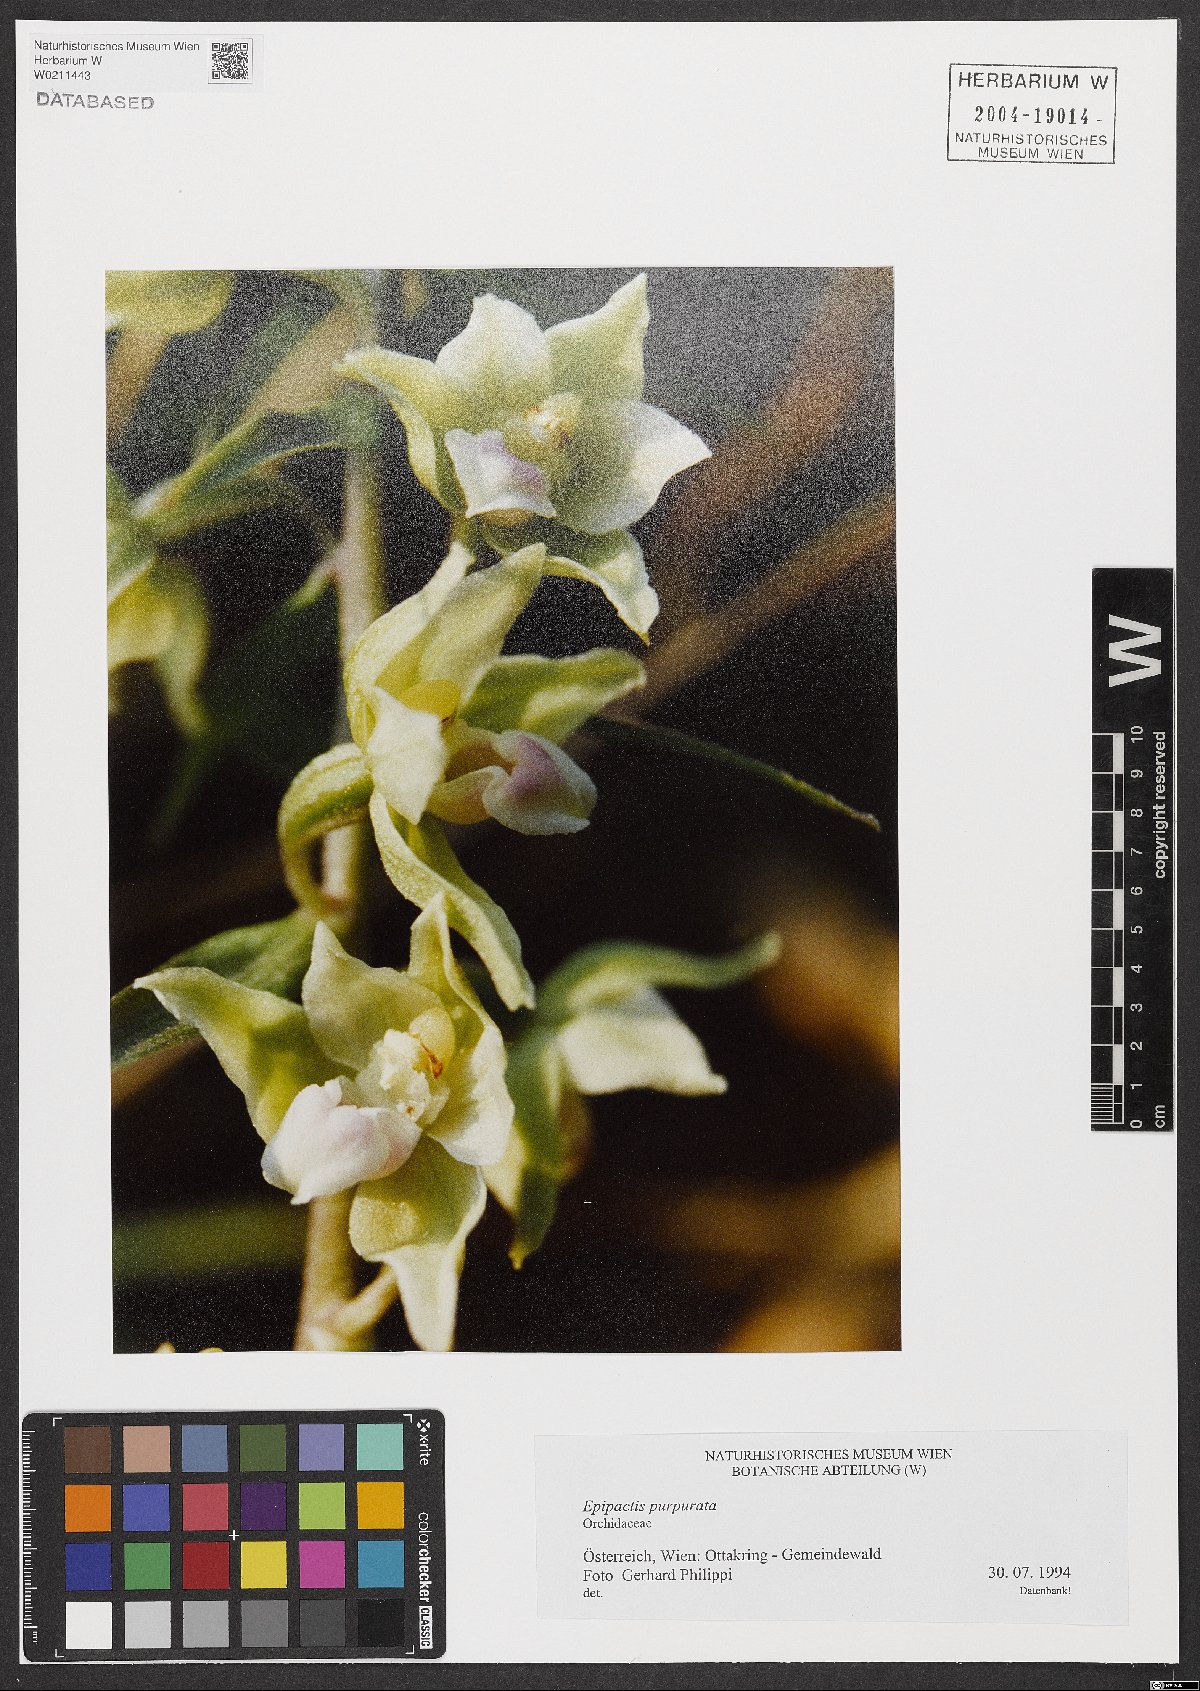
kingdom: Plantae
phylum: Tracheophyta
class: Liliopsida
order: Asparagales
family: Orchidaceae
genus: Epipactis
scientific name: Epipactis purpurata
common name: Violet helleborine
